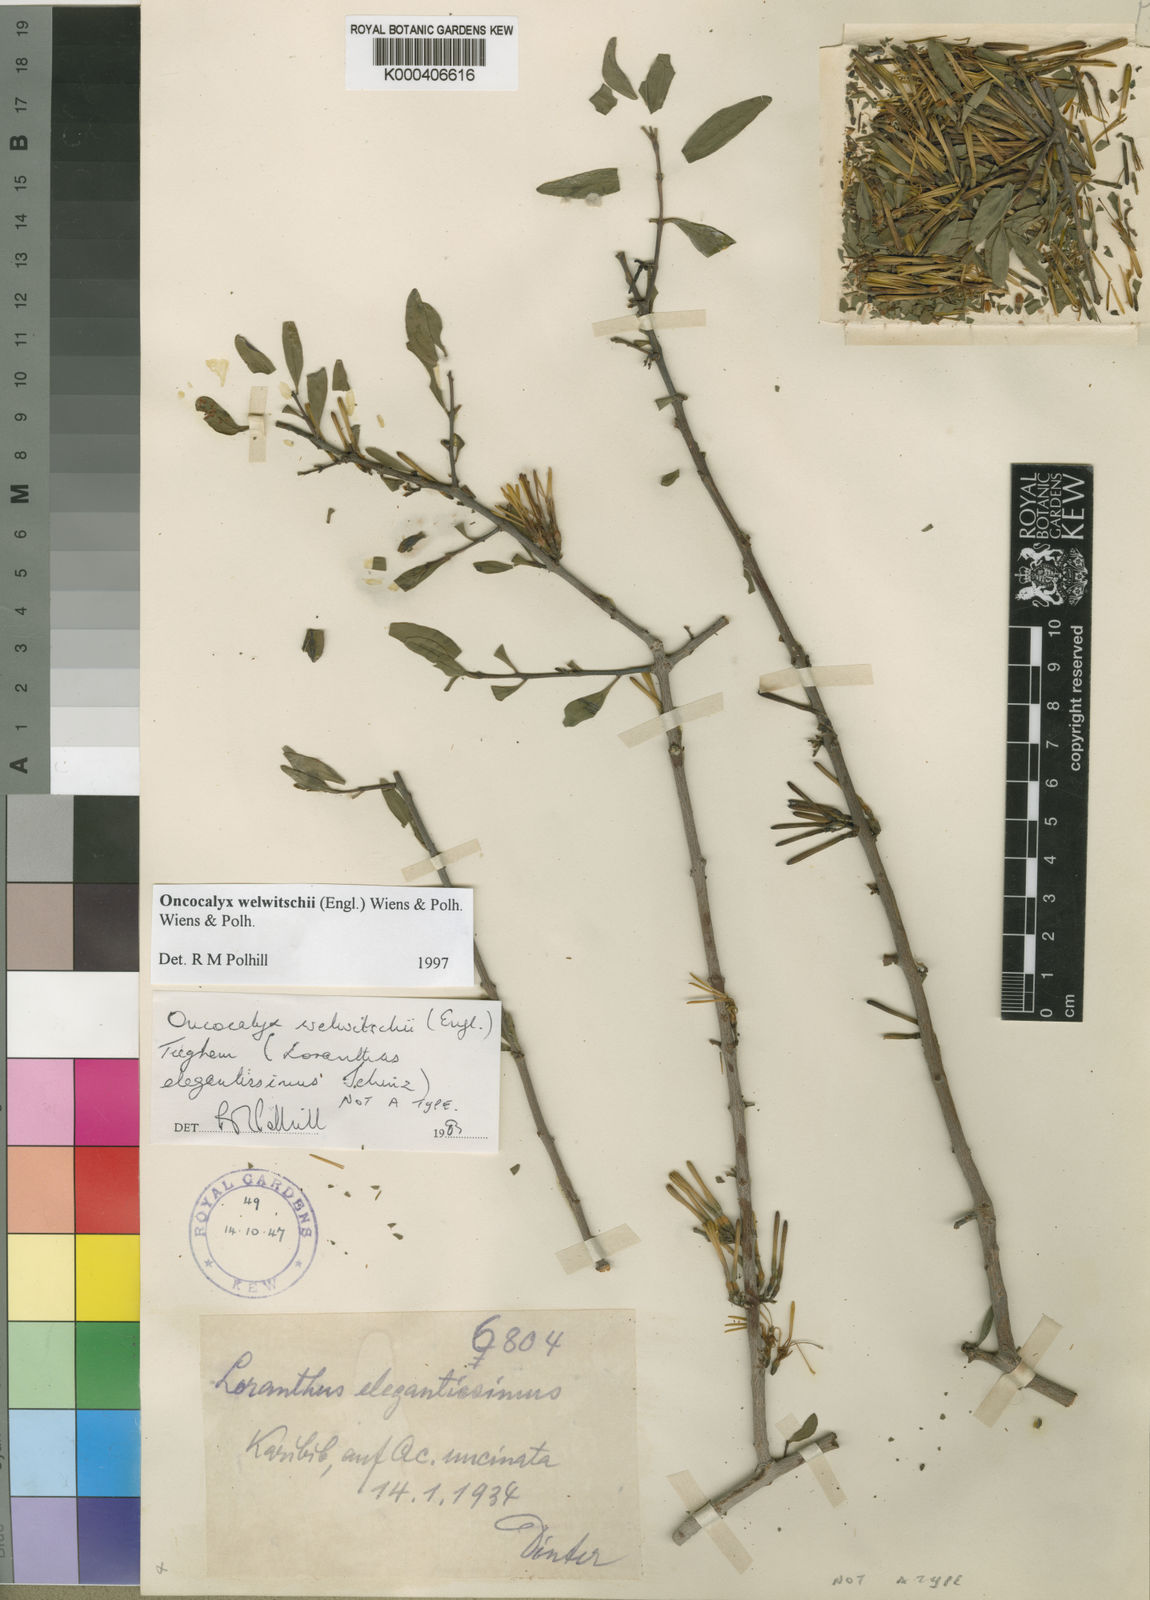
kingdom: Plantae
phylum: Tracheophyta
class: Magnoliopsida
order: Santalales
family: Loranthaceae
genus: Loranthella
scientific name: Loranthella welwitschii
